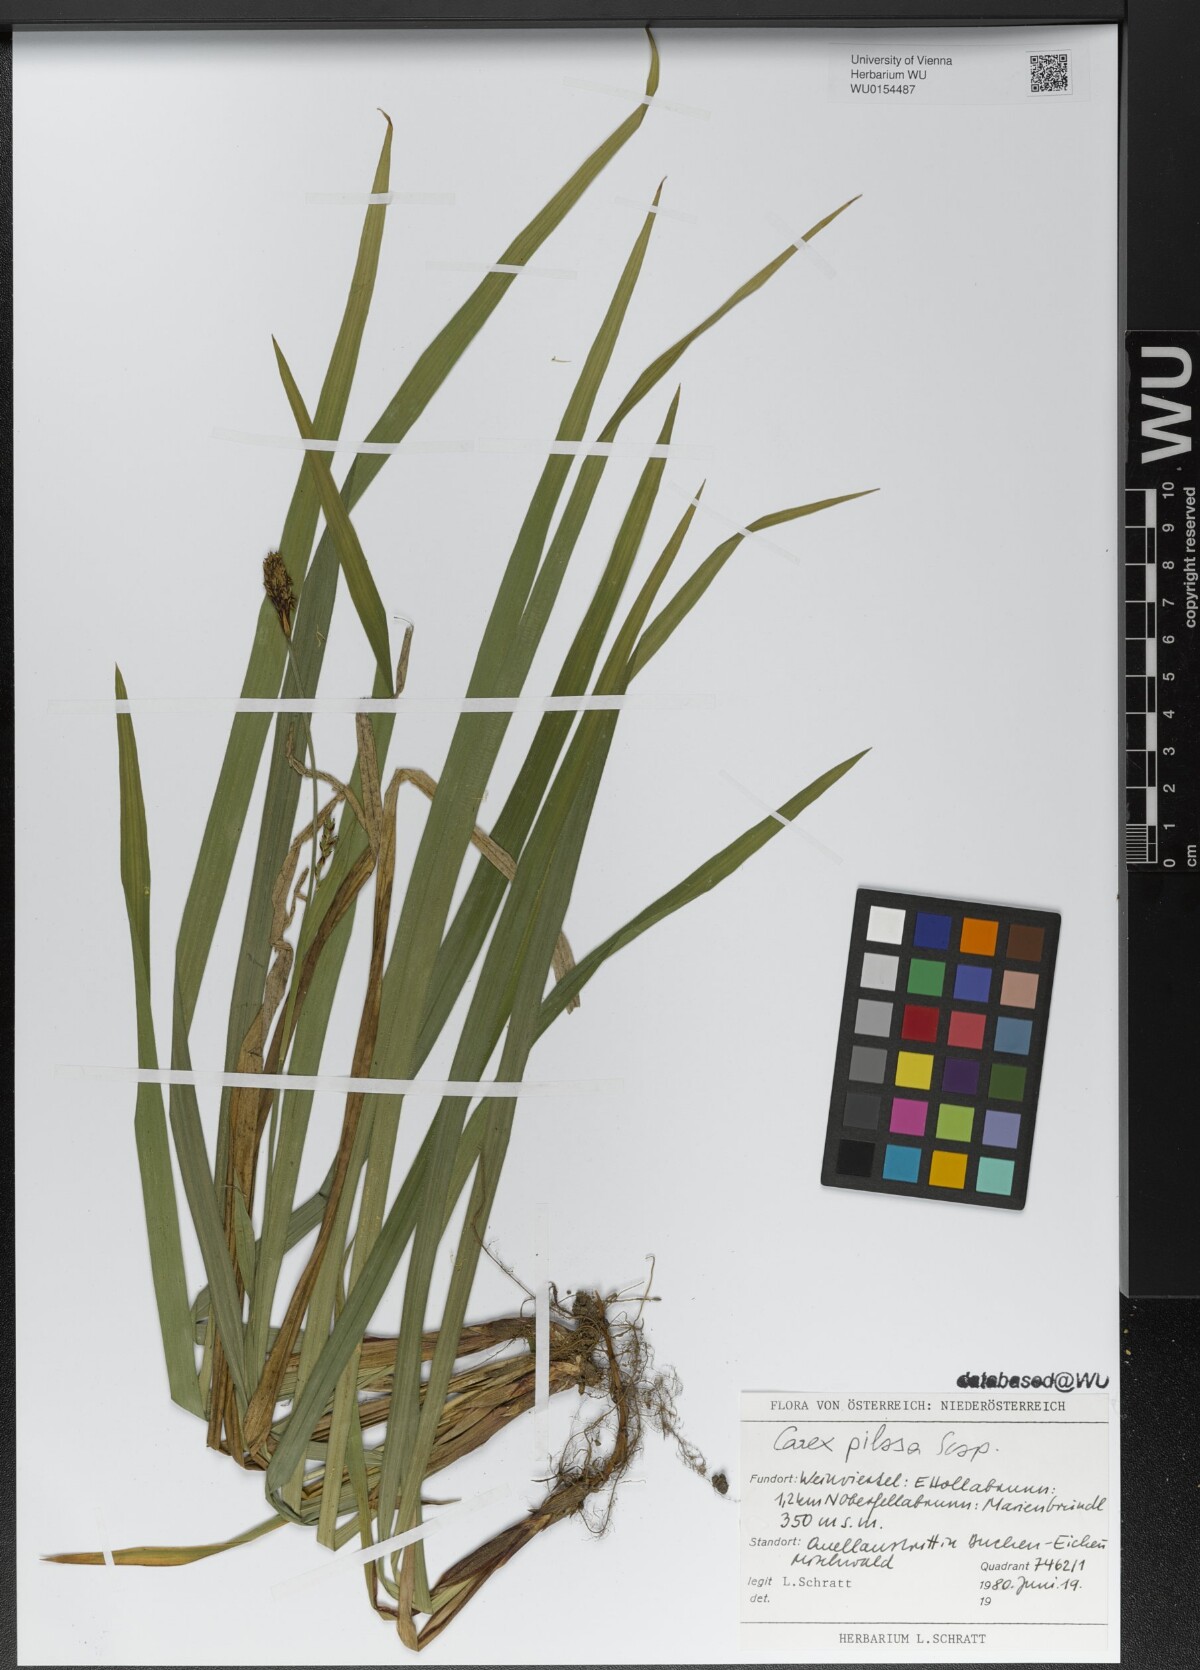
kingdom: Plantae
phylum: Tracheophyta
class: Liliopsida
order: Poales
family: Cyperaceae
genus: Carex
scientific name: Carex pilosa
